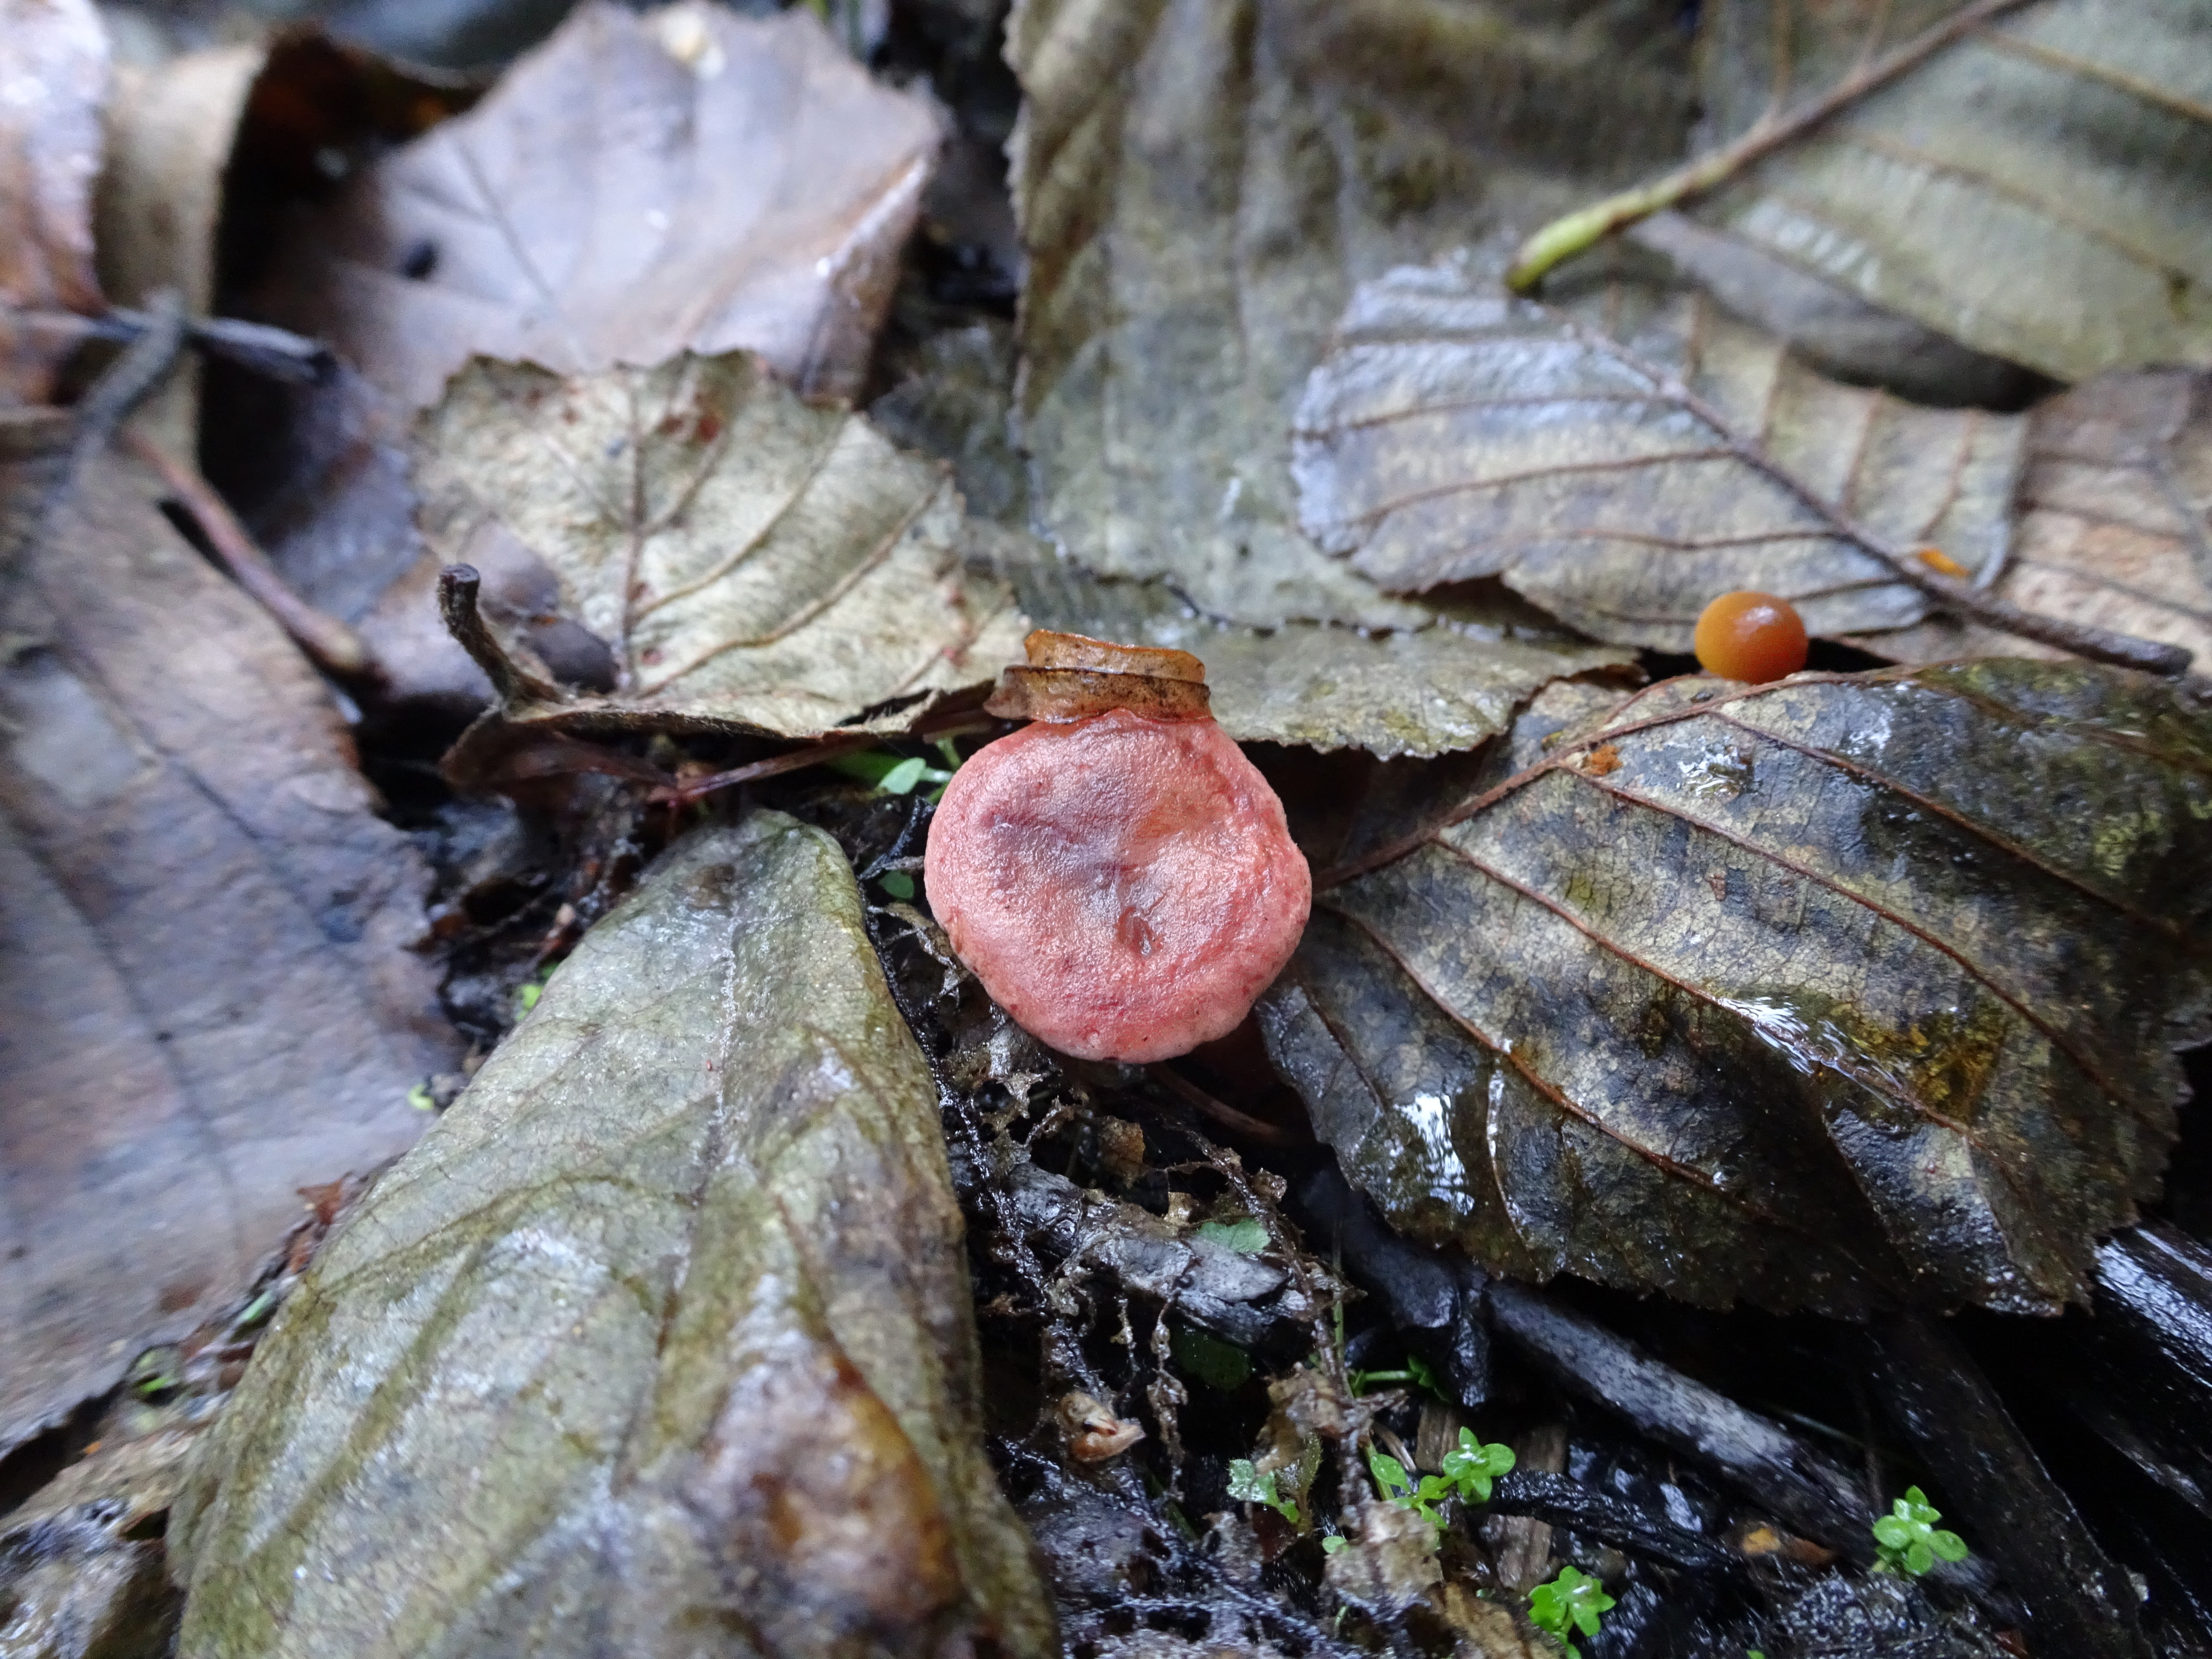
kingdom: Fungi
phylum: Basidiomycota
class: Agaricomycetes
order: Russulales
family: Russulaceae
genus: Lactarius
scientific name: Lactarius lilacinus
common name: Lilac milkcap
